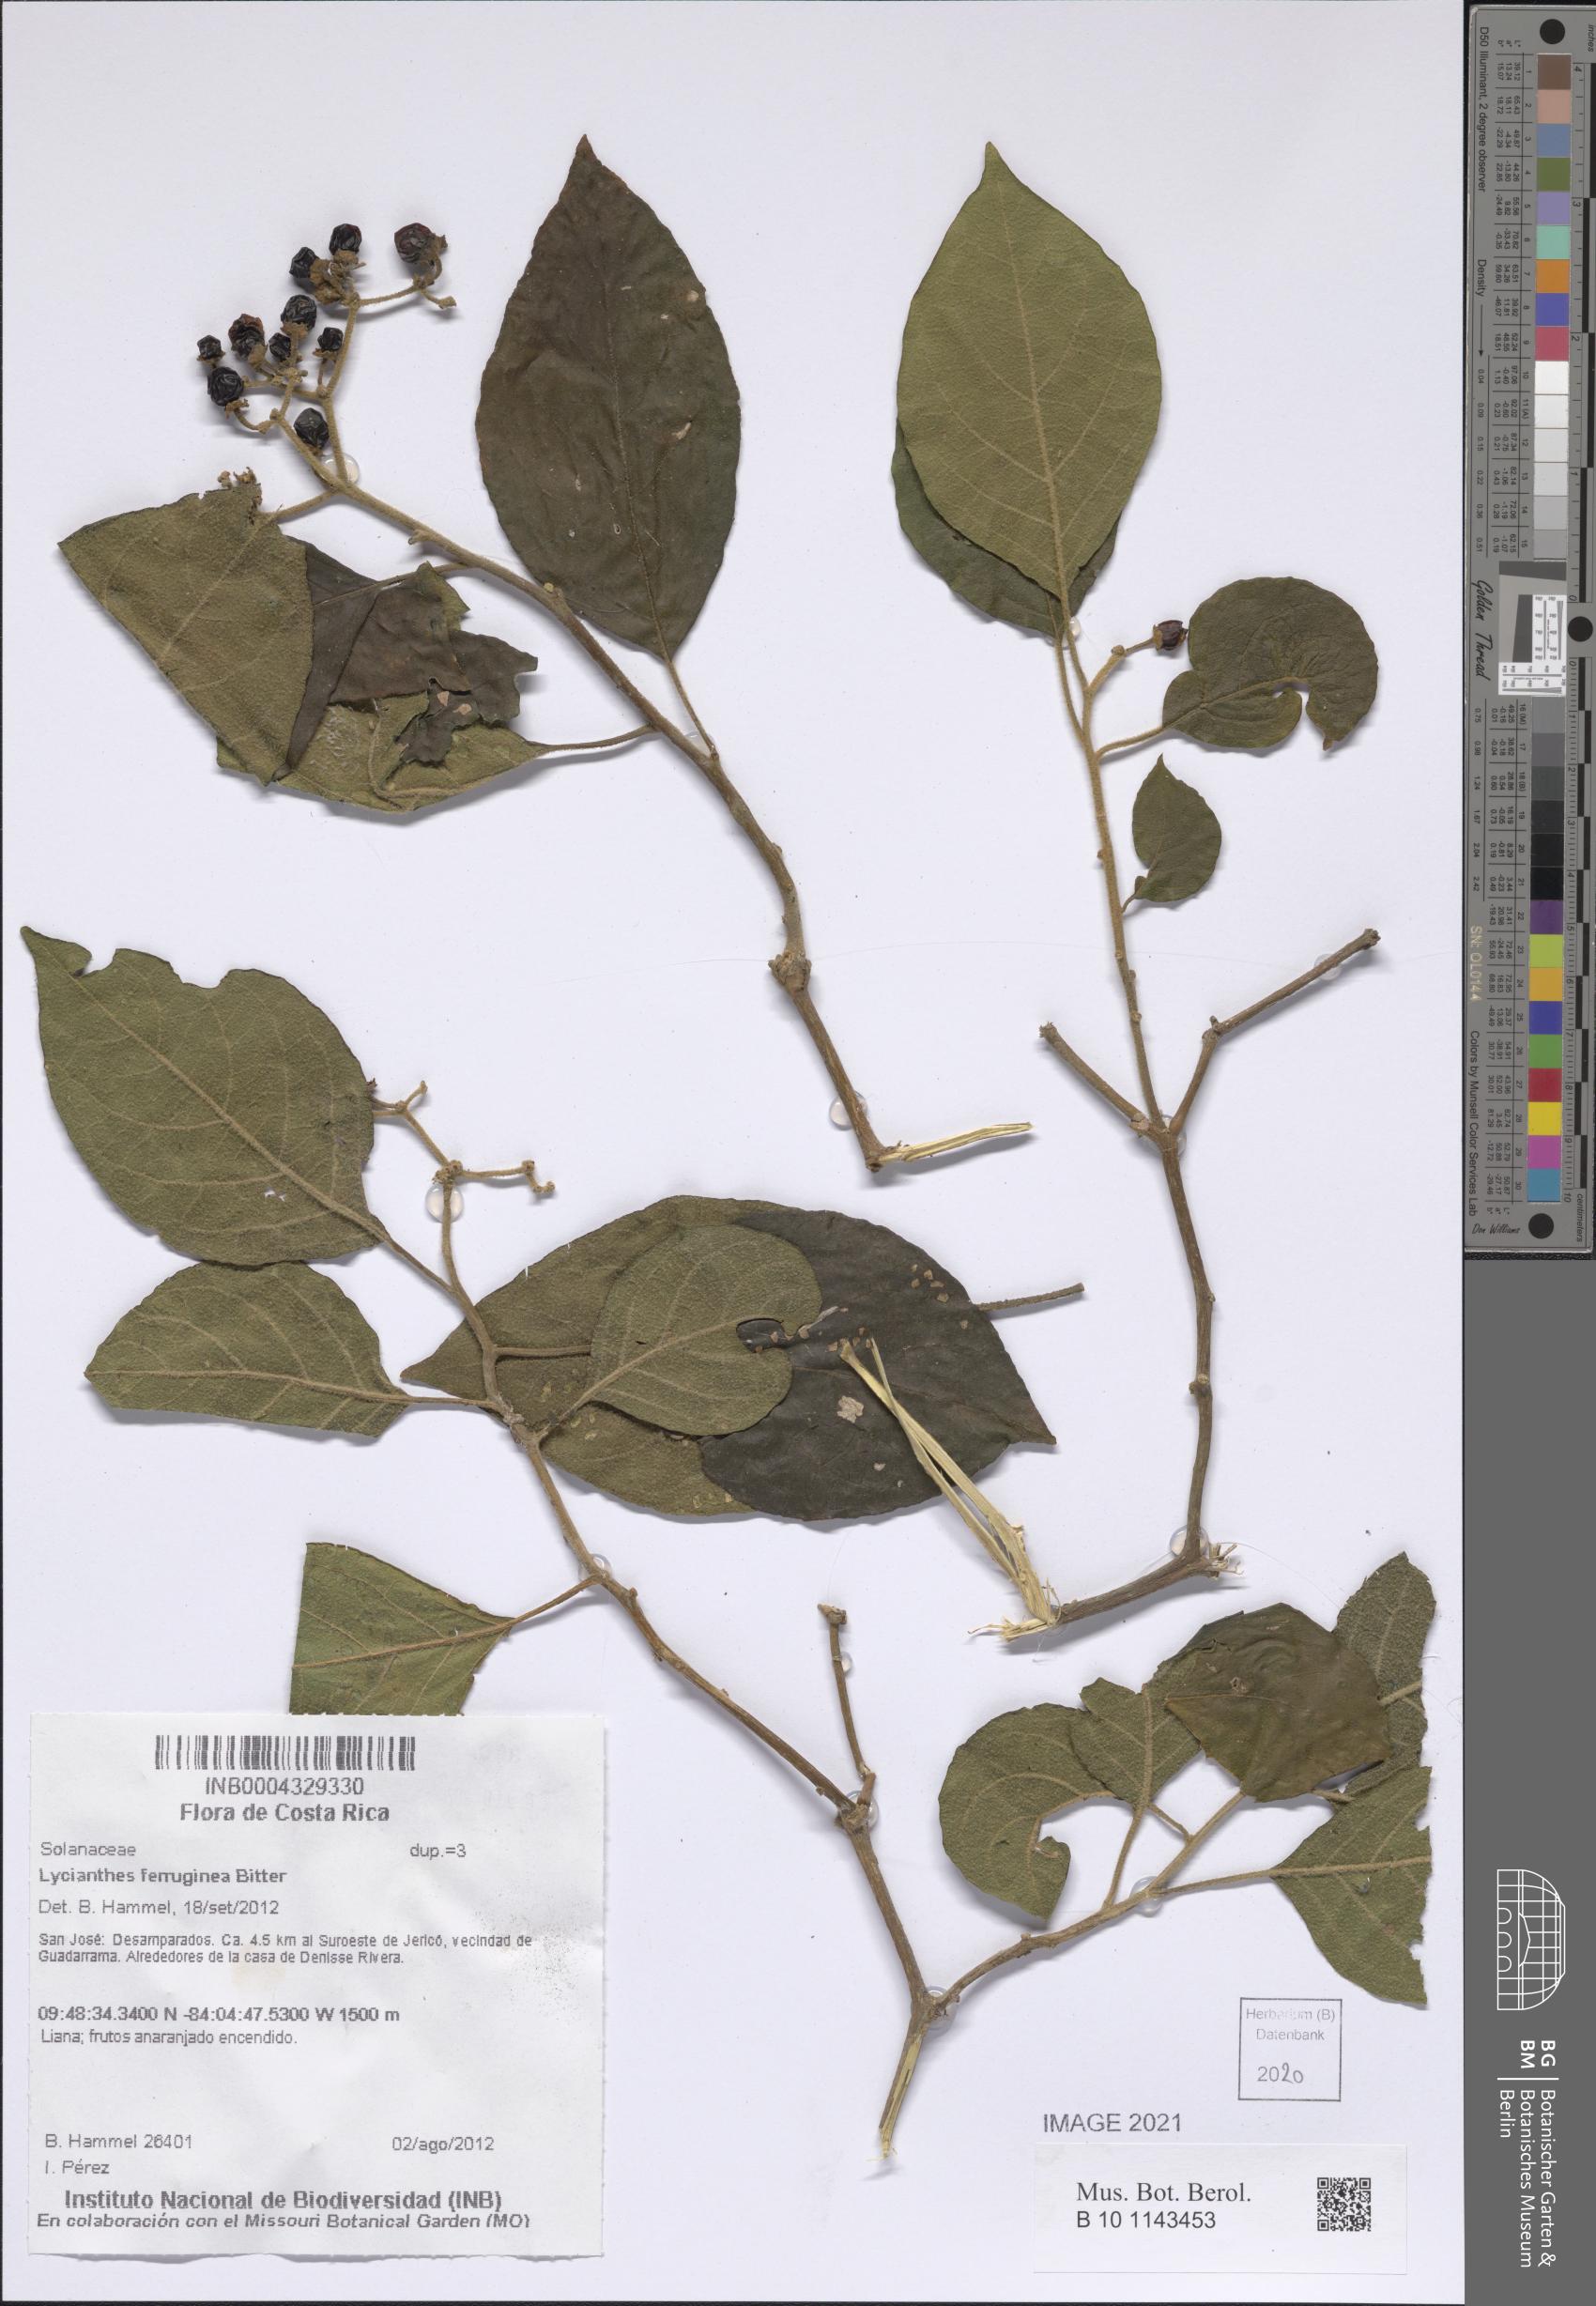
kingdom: Plantae
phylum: Tracheophyta
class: Magnoliopsida
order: Solanales
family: Solanaceae
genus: Lycianthes
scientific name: Lycianthes ferruginea
